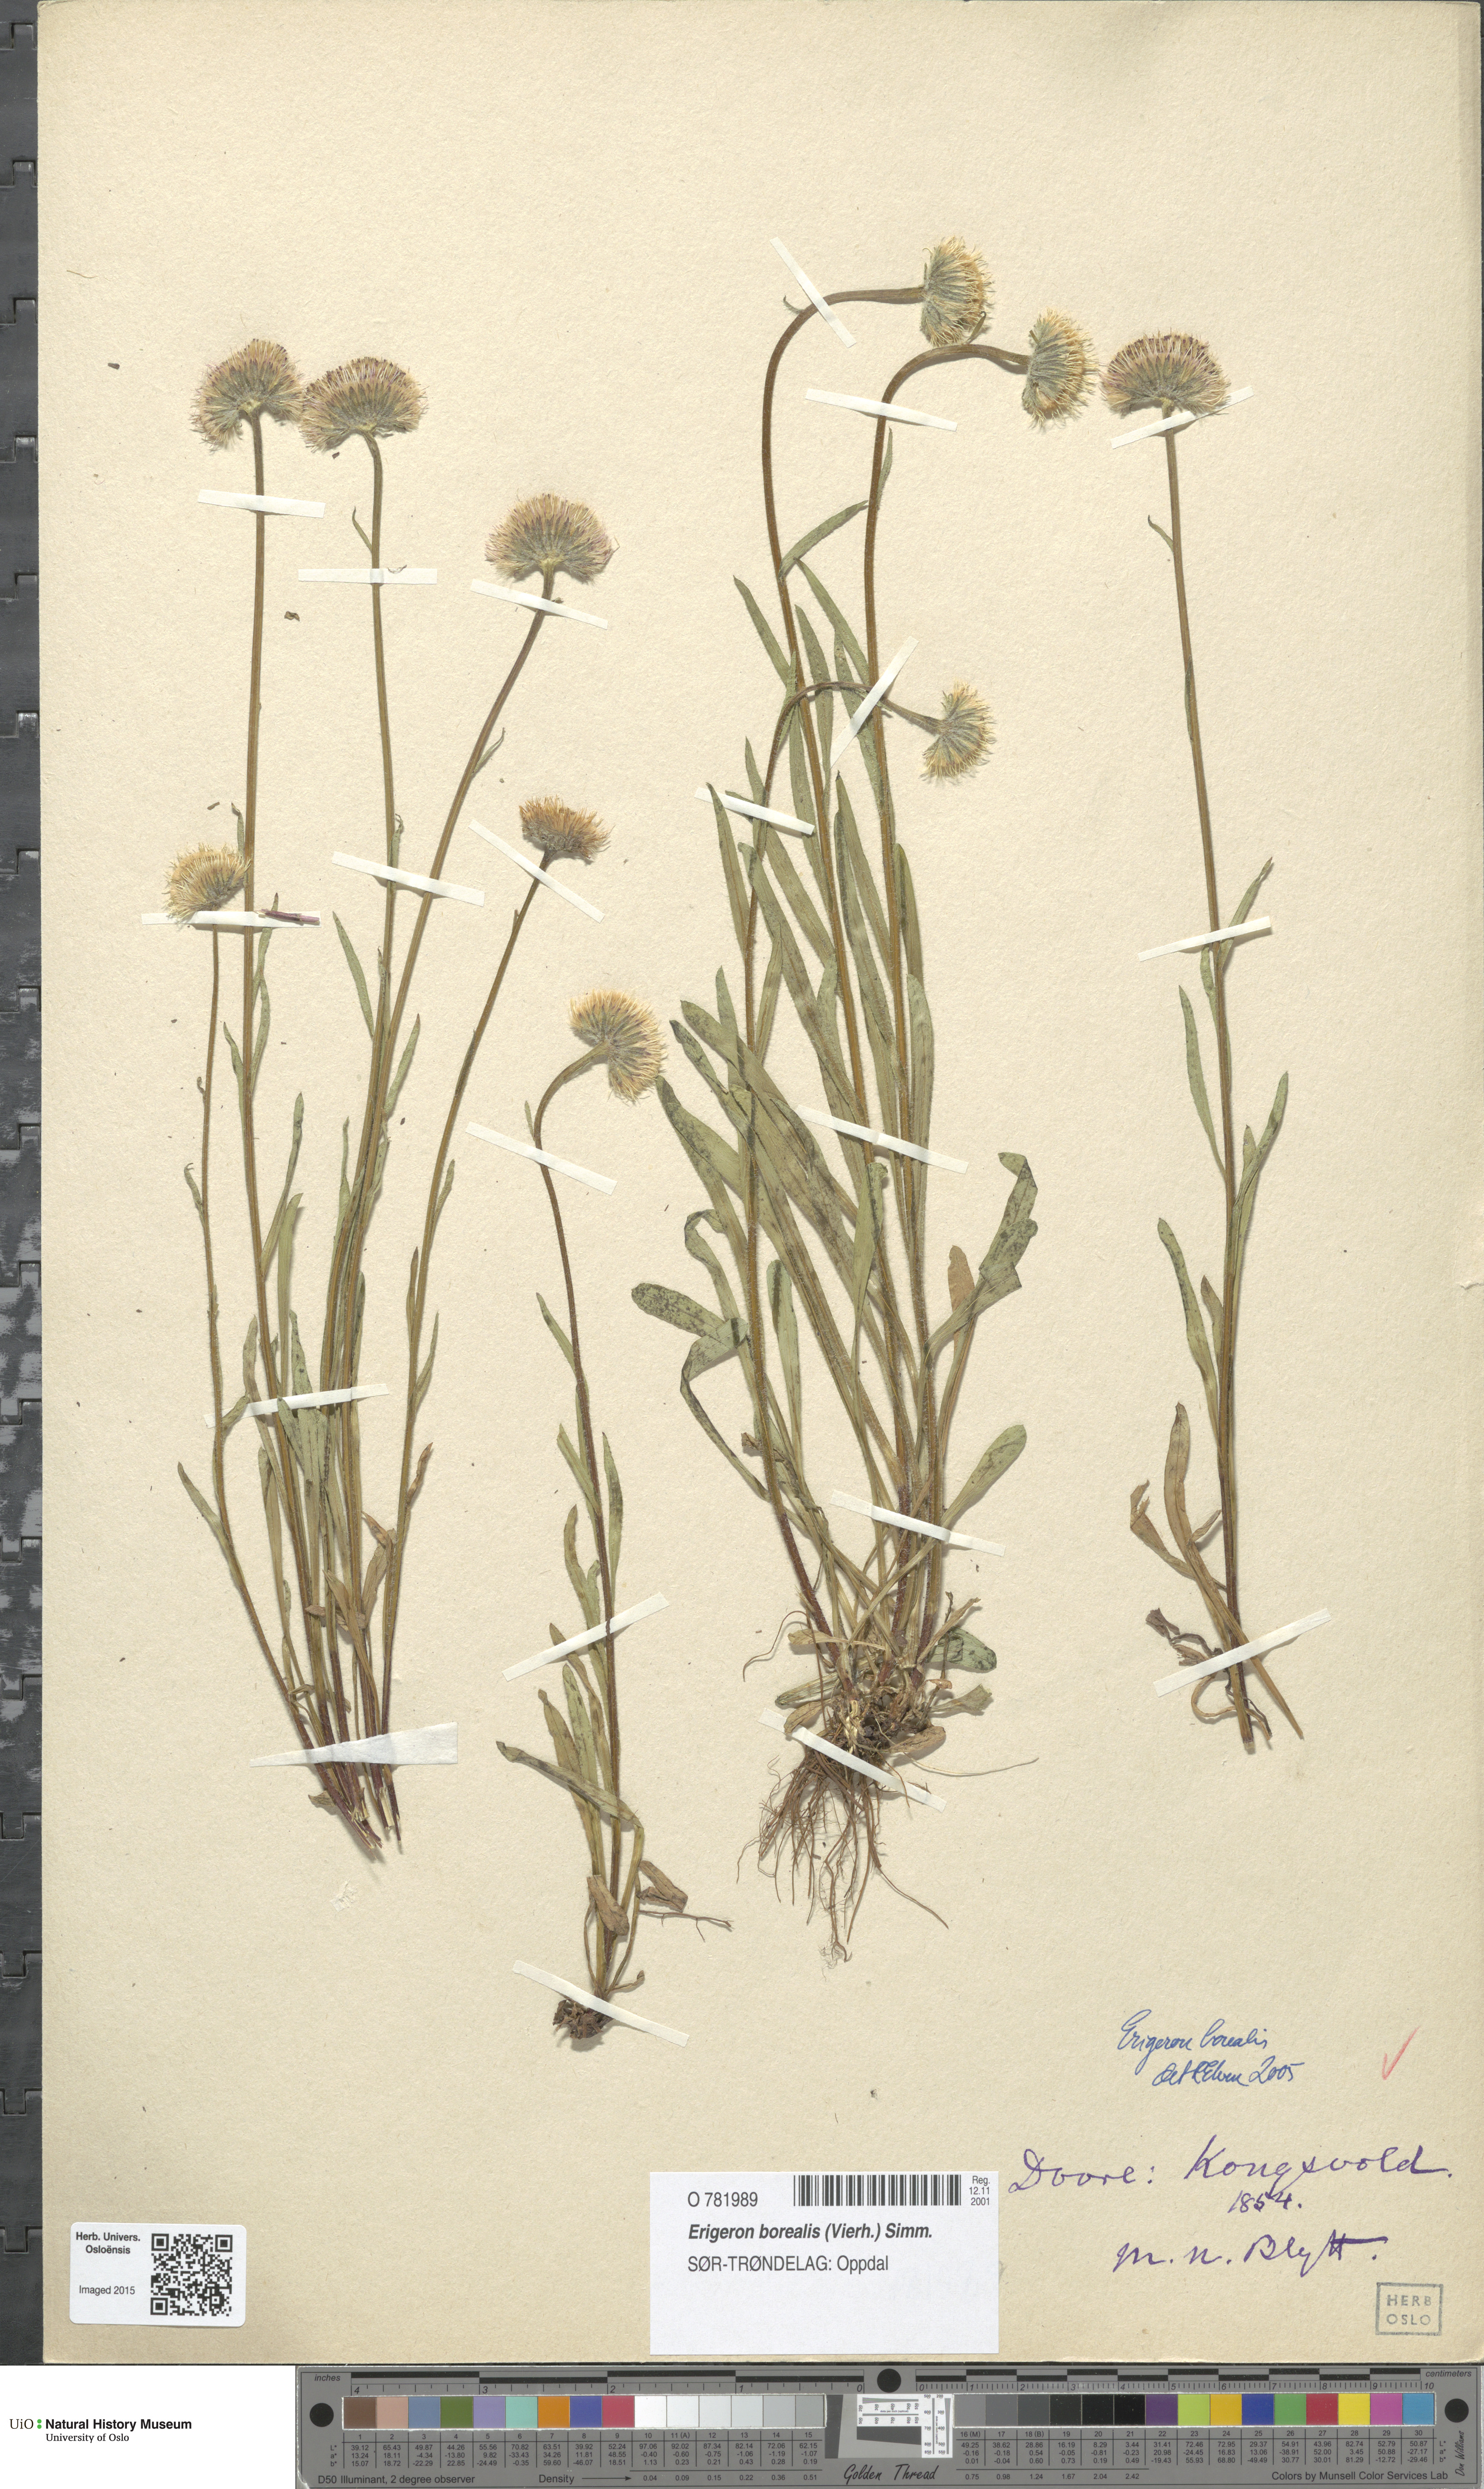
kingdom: Plantae
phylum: Tracheophyta
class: Magnoliopsida
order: Asterales
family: Asteraceae
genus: Erigeron
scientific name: Erigeron borealis
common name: Alpine fleabane
